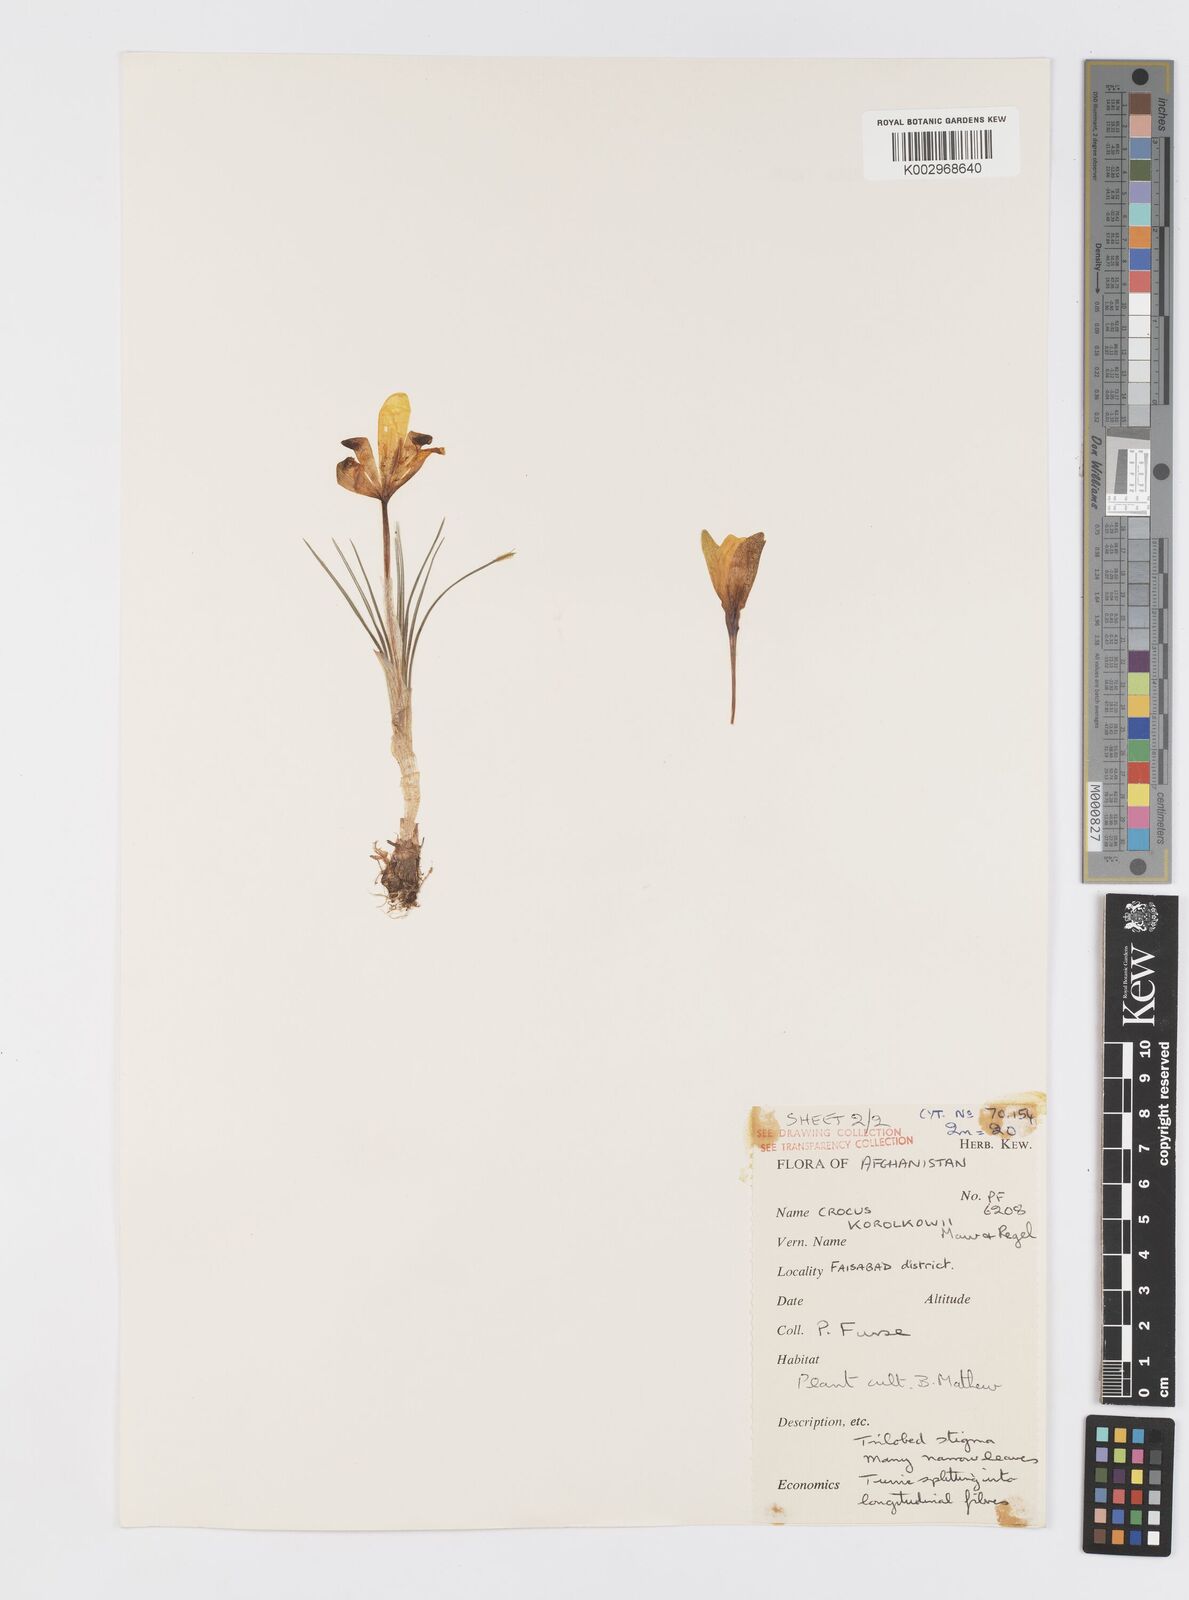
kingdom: Plantae
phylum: Tracheophyta
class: Liliopsida
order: Asparagales
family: Iridaceae
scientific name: Iridaceae
